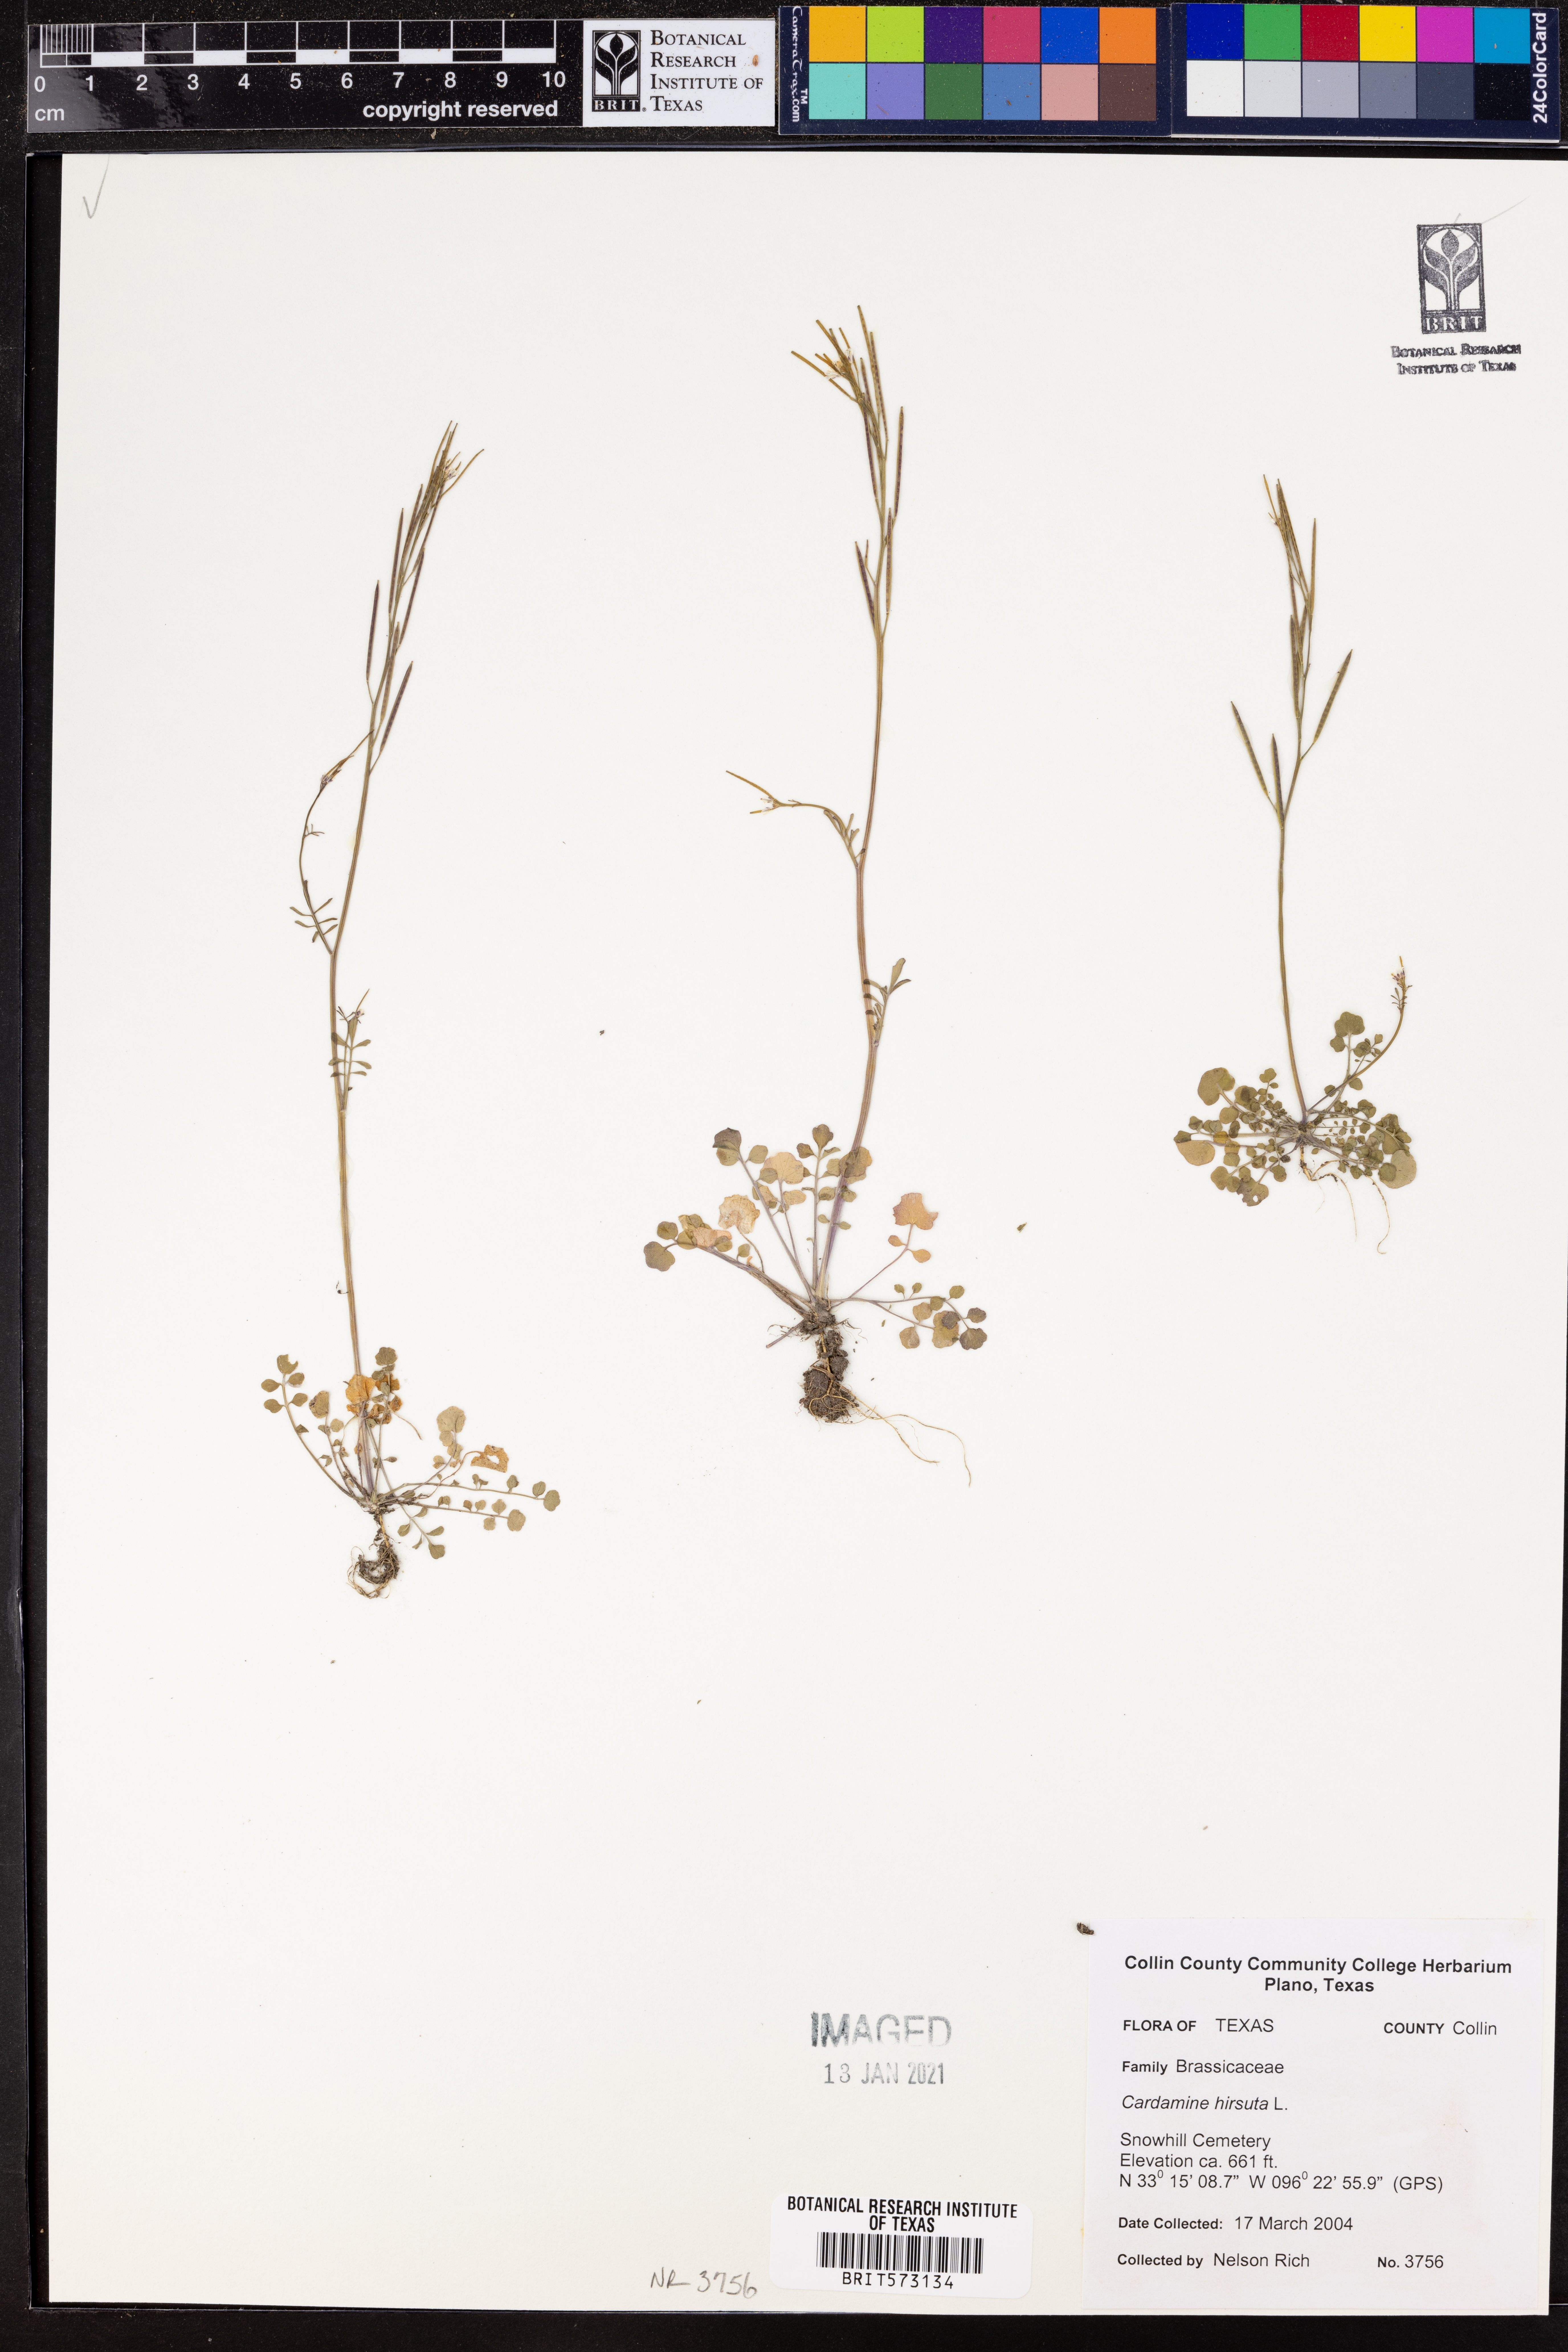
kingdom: Plantae
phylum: Tracheophyta
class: Magnoliopsida
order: Brassicales
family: Brassicaceae
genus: Cardamine
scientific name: Cardamine hirsuta
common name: Hairy bittercress
